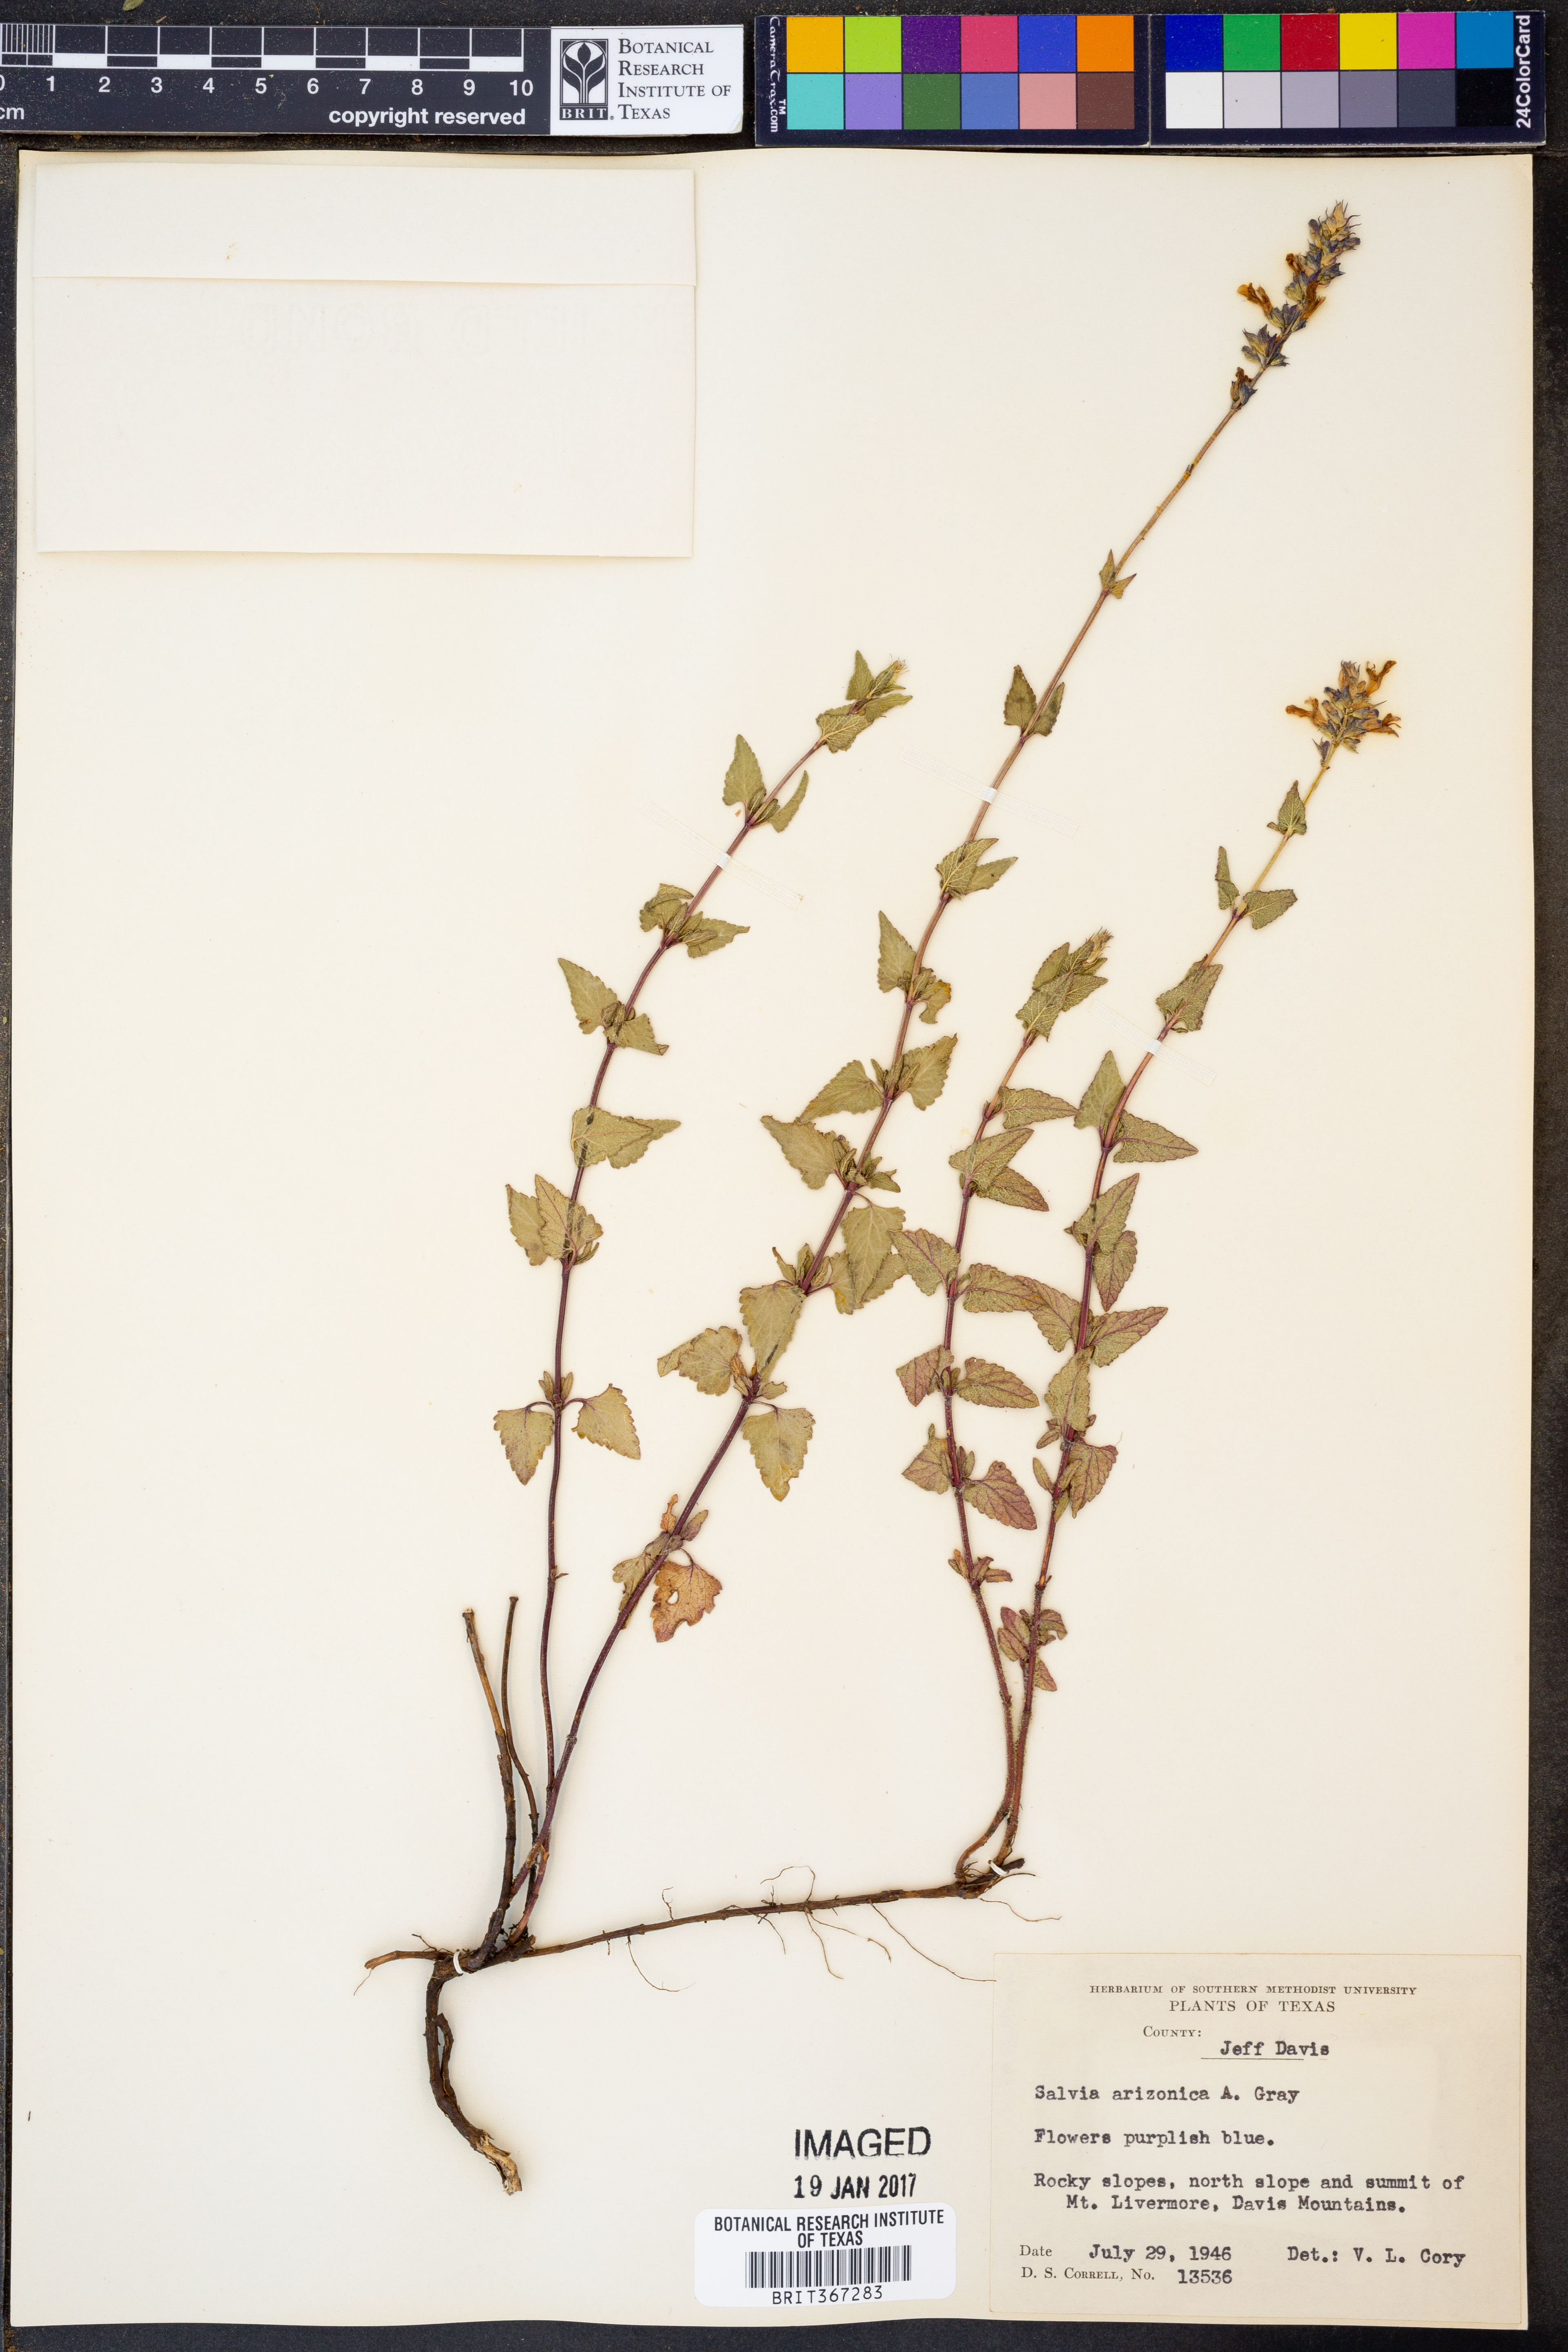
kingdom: Plantae
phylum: Tracheophyta
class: Magnoliopsida
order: Lamiales
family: Lamiaceae
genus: Salvia
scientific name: Salvia arizonica
